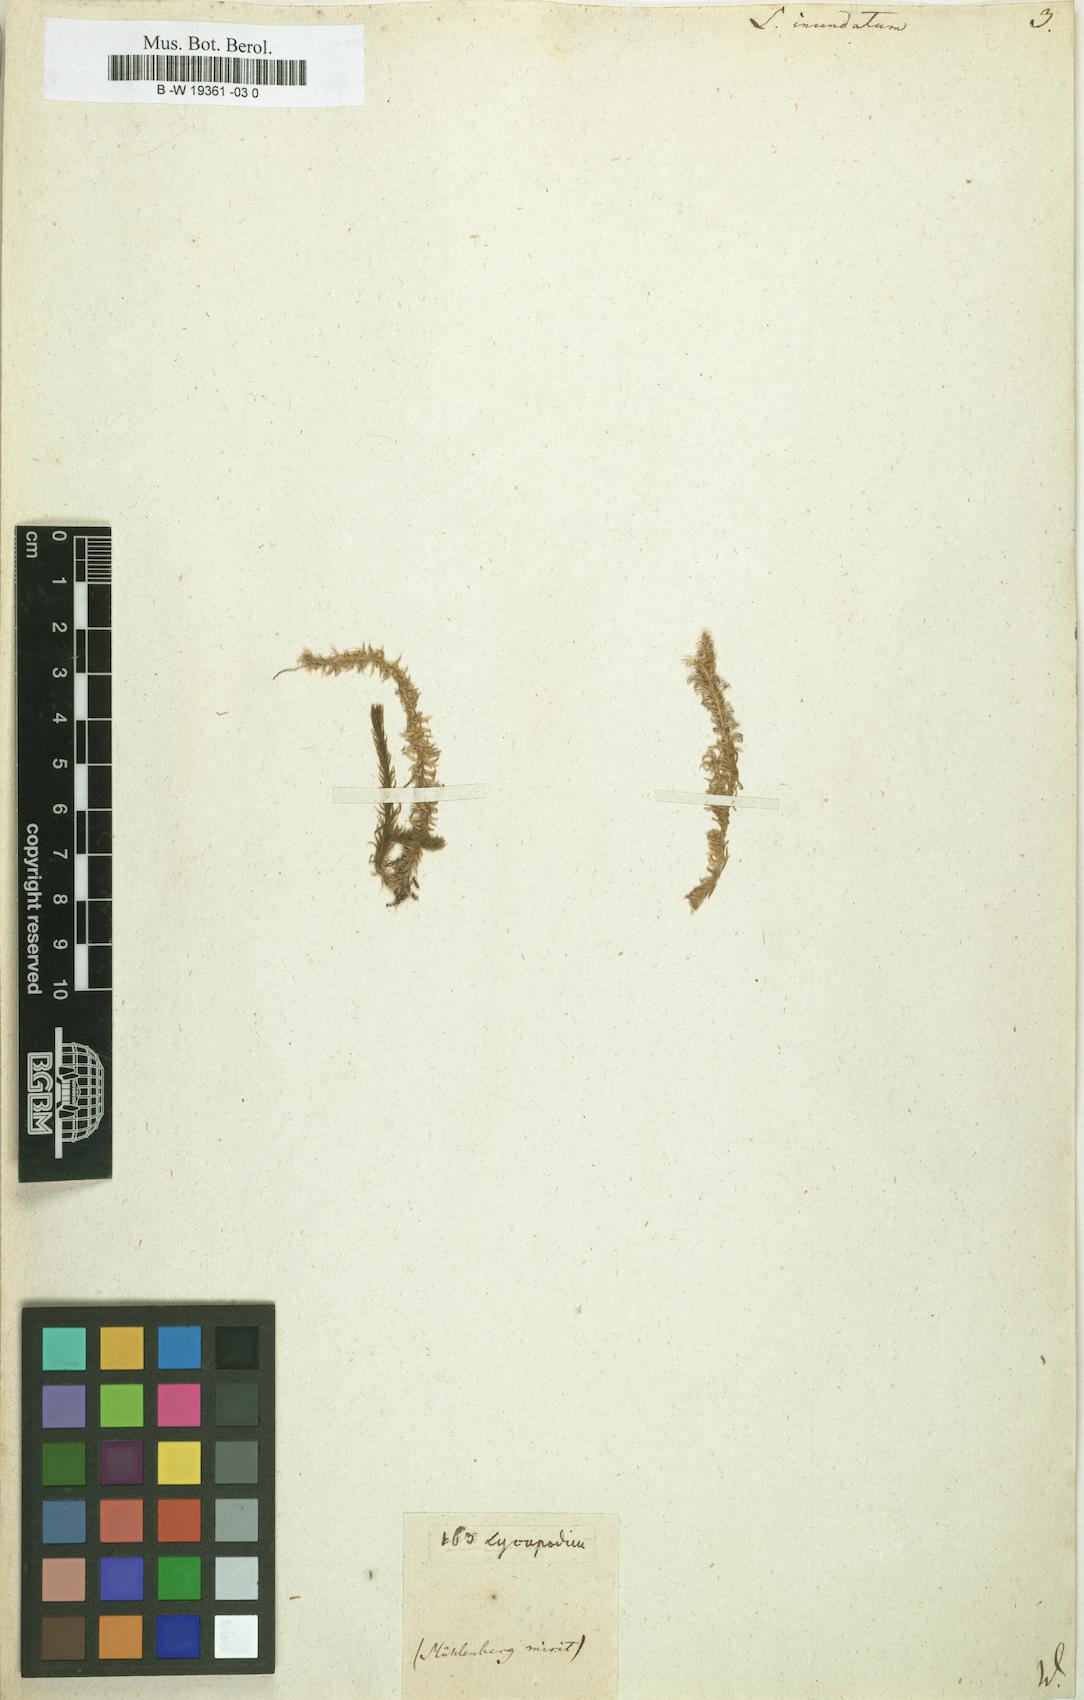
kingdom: Plantae
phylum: Tracheophyta
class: Lycopodiopsida
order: Lycopodiales
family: Lycopodiaceae
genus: Lycopodiella
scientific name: Lycopodiella inundata
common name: Marsh clubmoss
